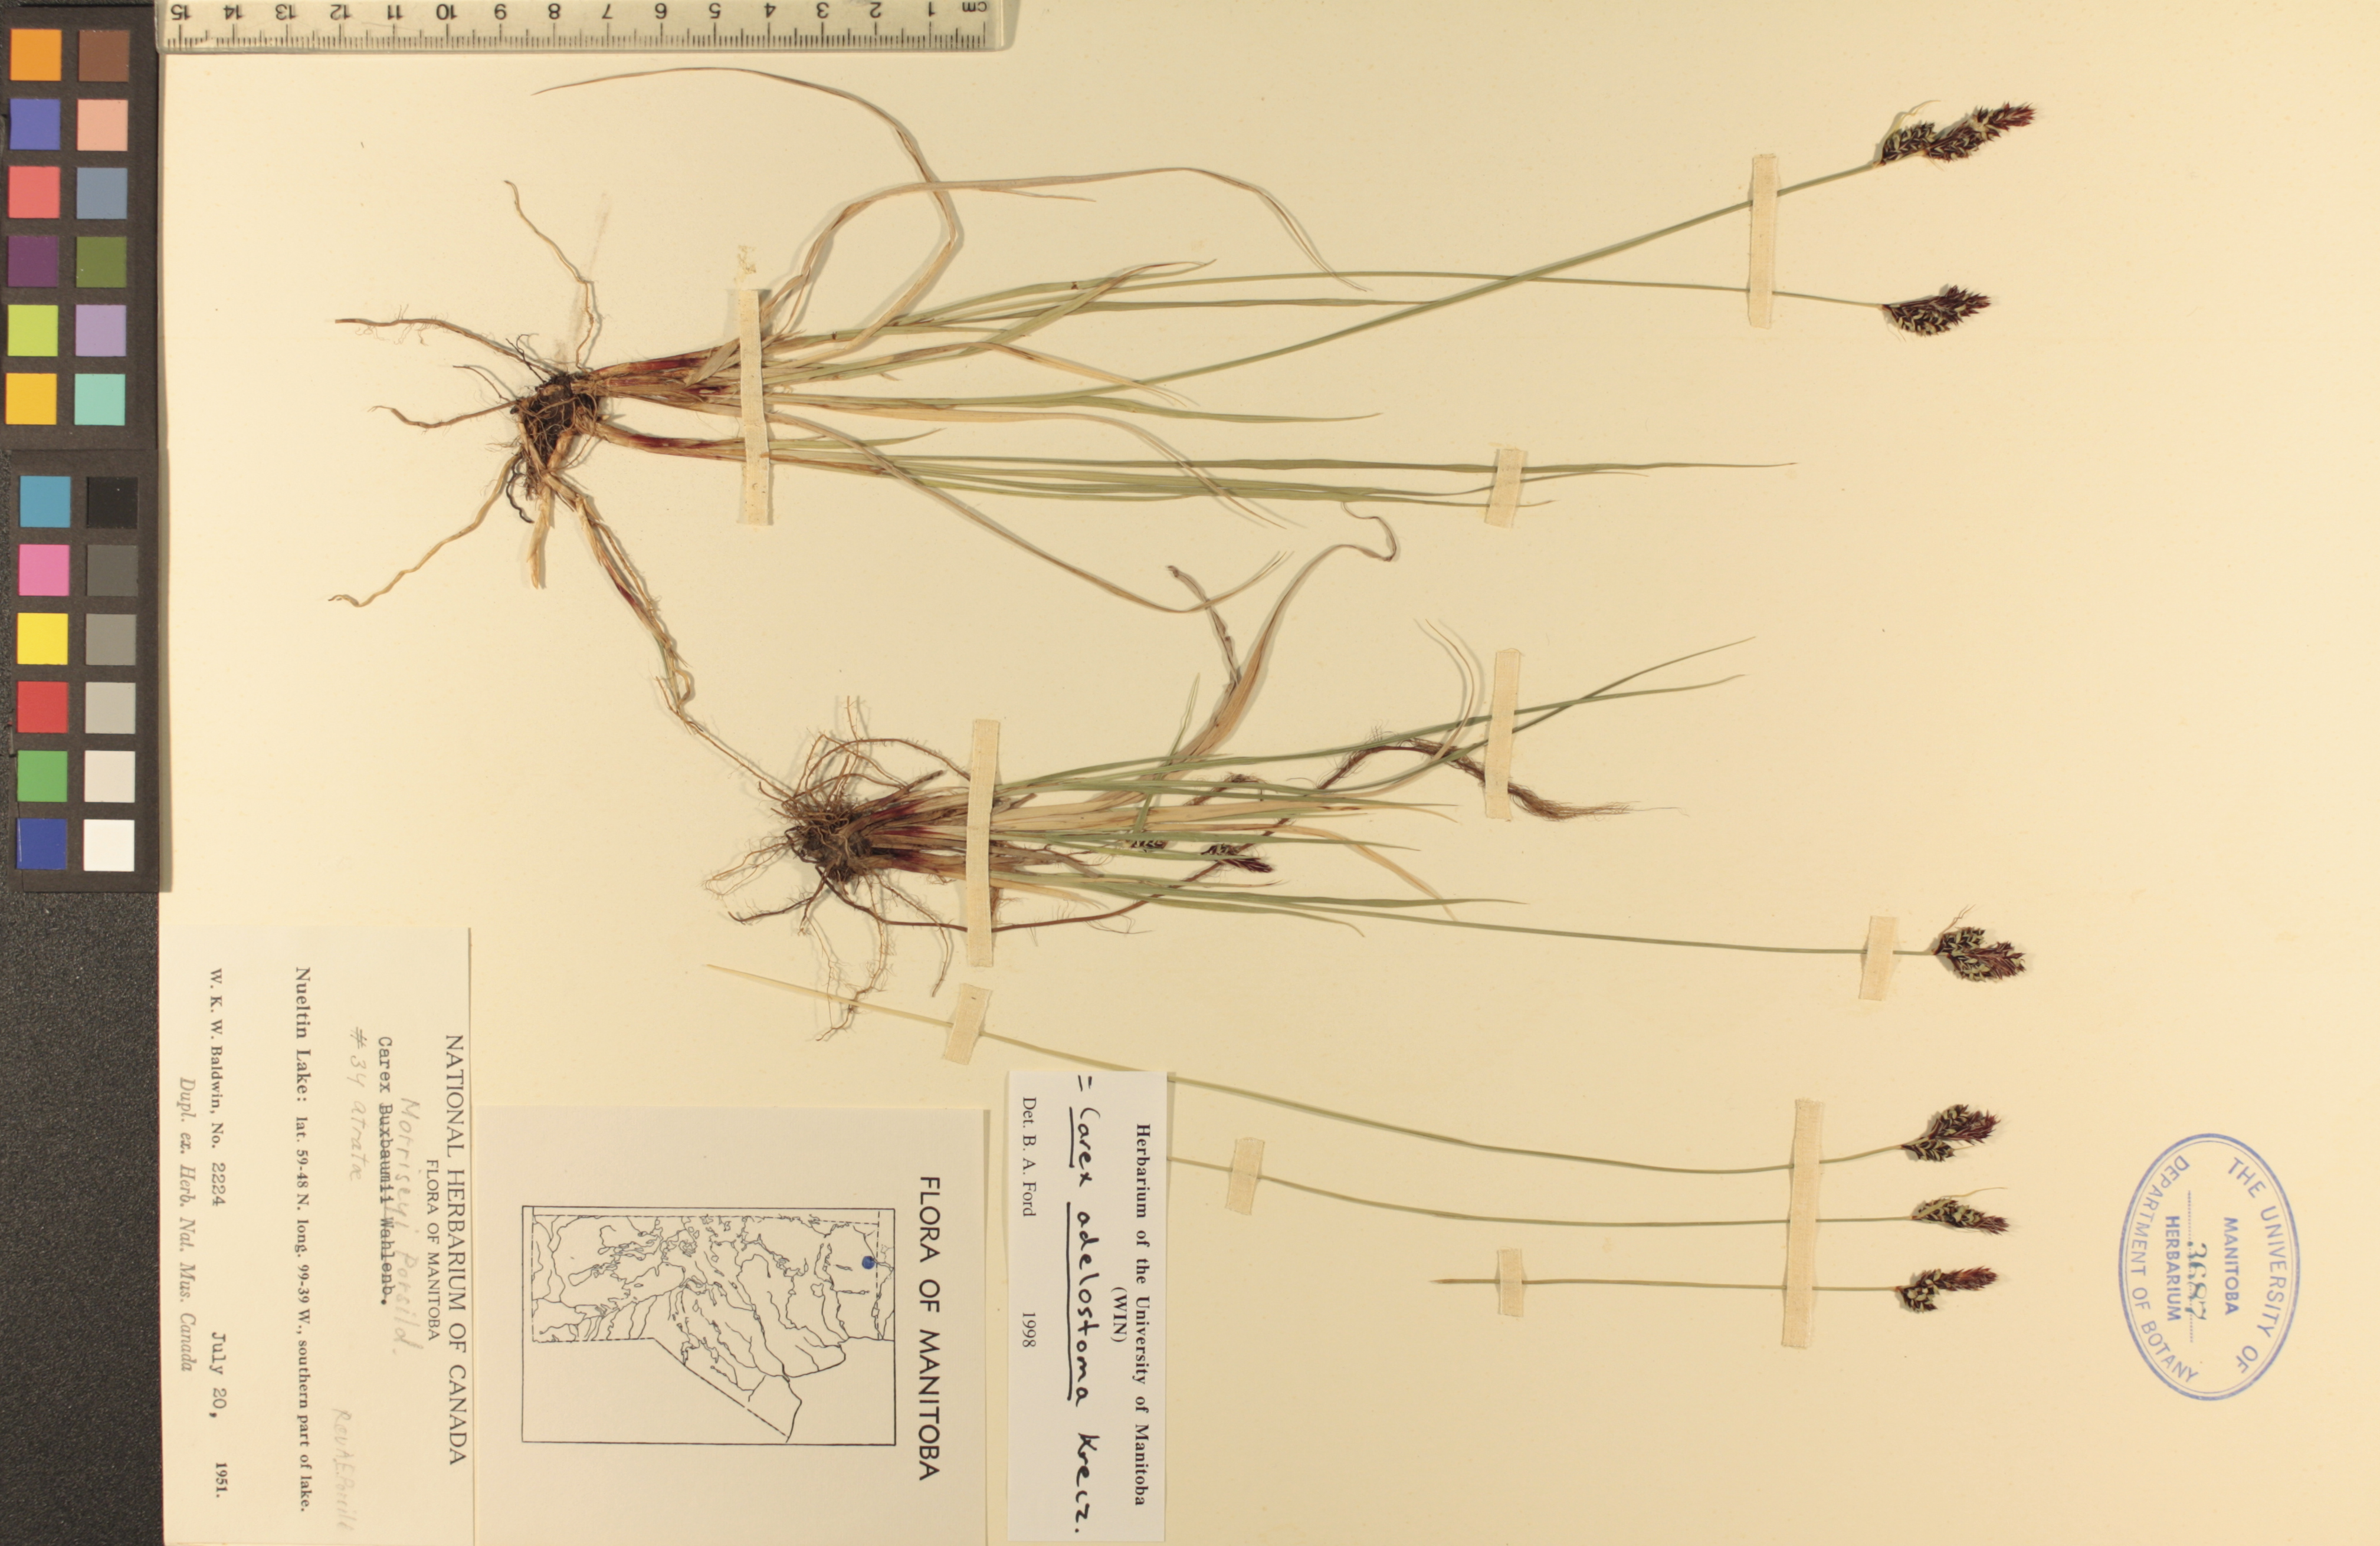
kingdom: Plantae
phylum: Tracheophyta
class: Liliopsida
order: Poales
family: Cyperaceae
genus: Carex
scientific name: Carex adelostoma
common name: Circumpolar sedge
